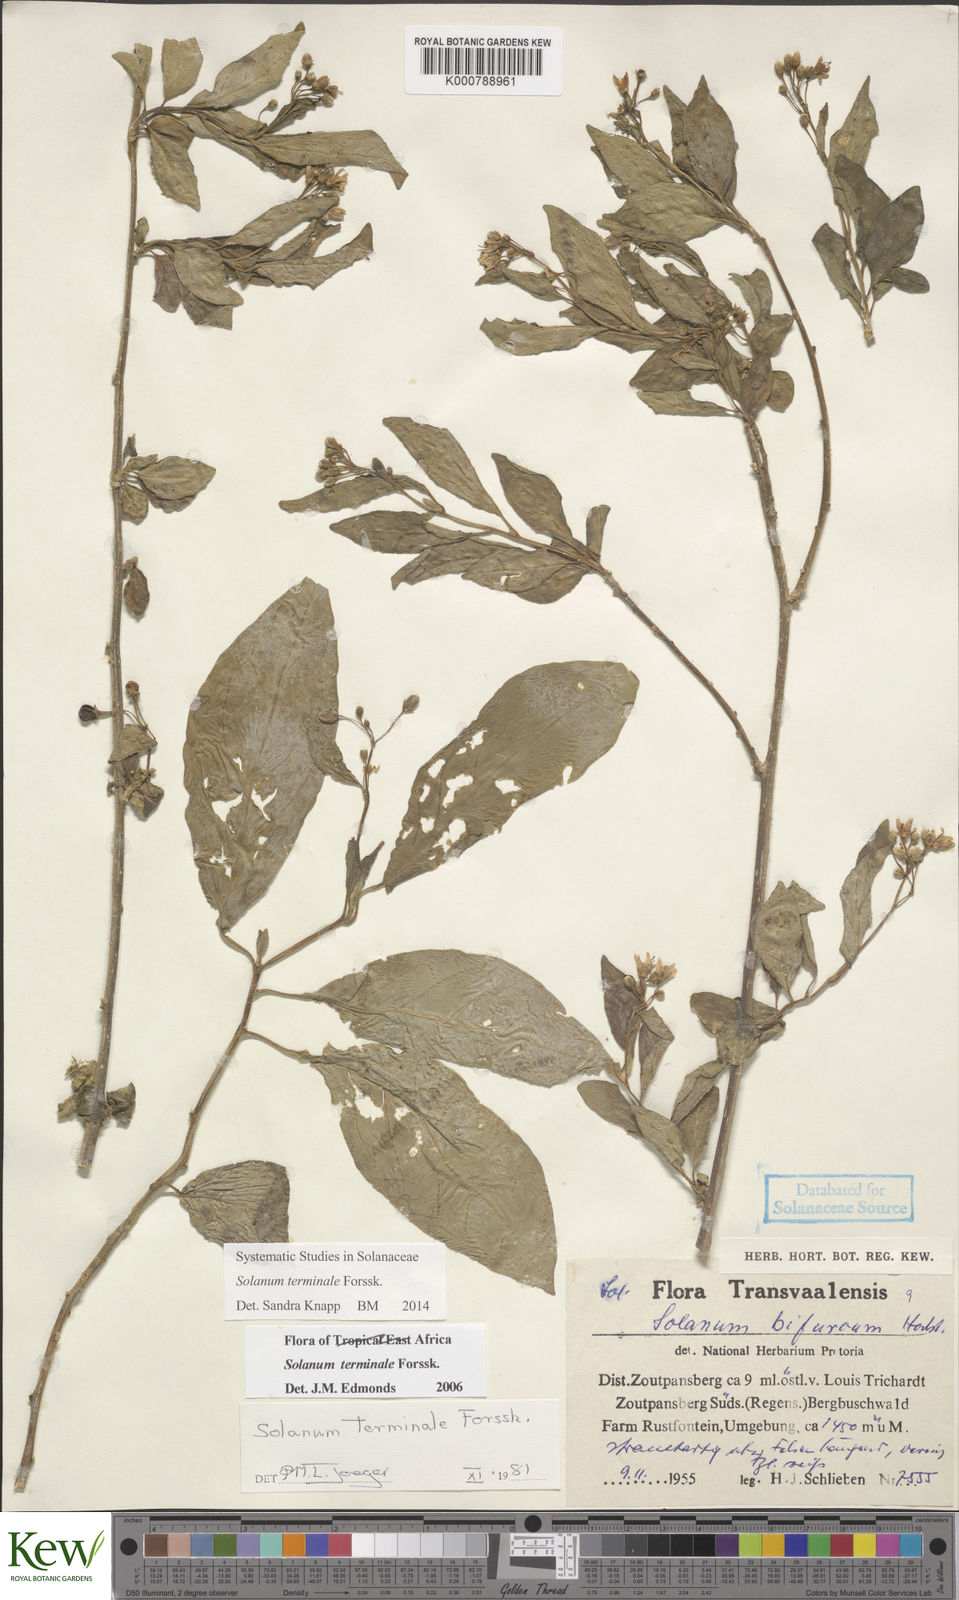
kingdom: Plantae
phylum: Tracheophyta
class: Magnoliopsida
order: Solanales
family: Solanaceae
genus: Solanum
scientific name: Solanum terminale
